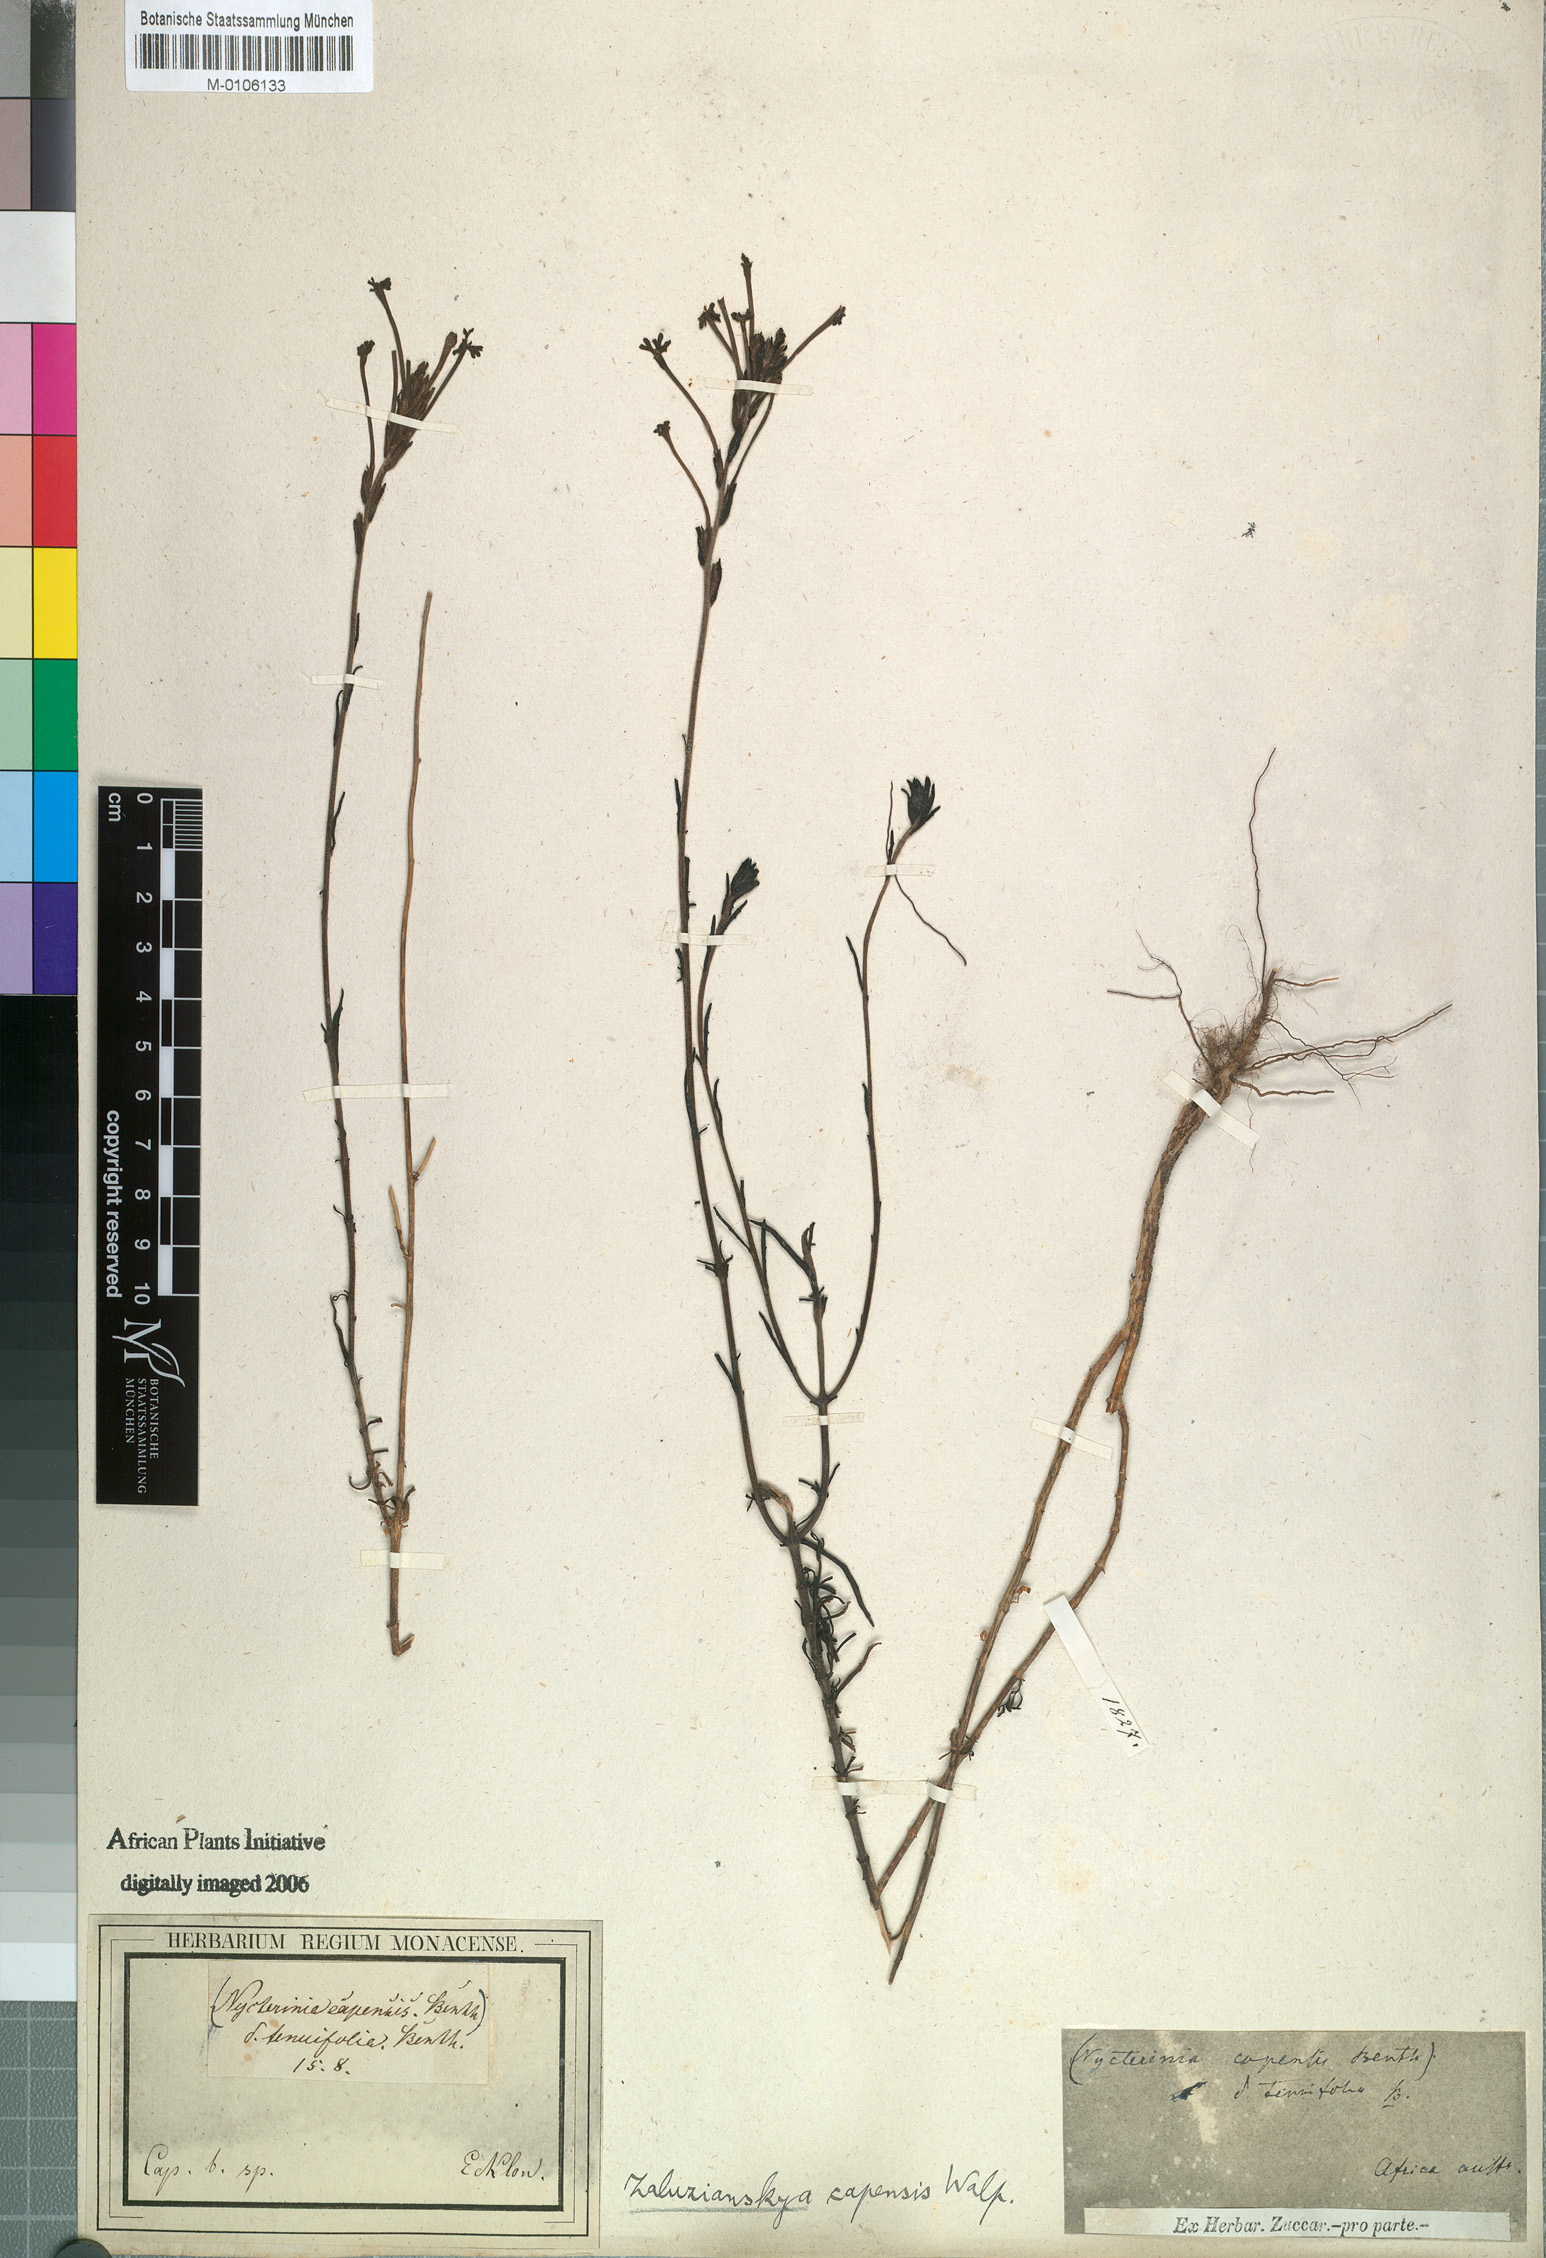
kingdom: Plantae
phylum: Tracheophyta
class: Magnoliopsida
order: Lamiales
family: Scrophulariaceae
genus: Zaluzianskya
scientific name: Zaluzianskya capensis
